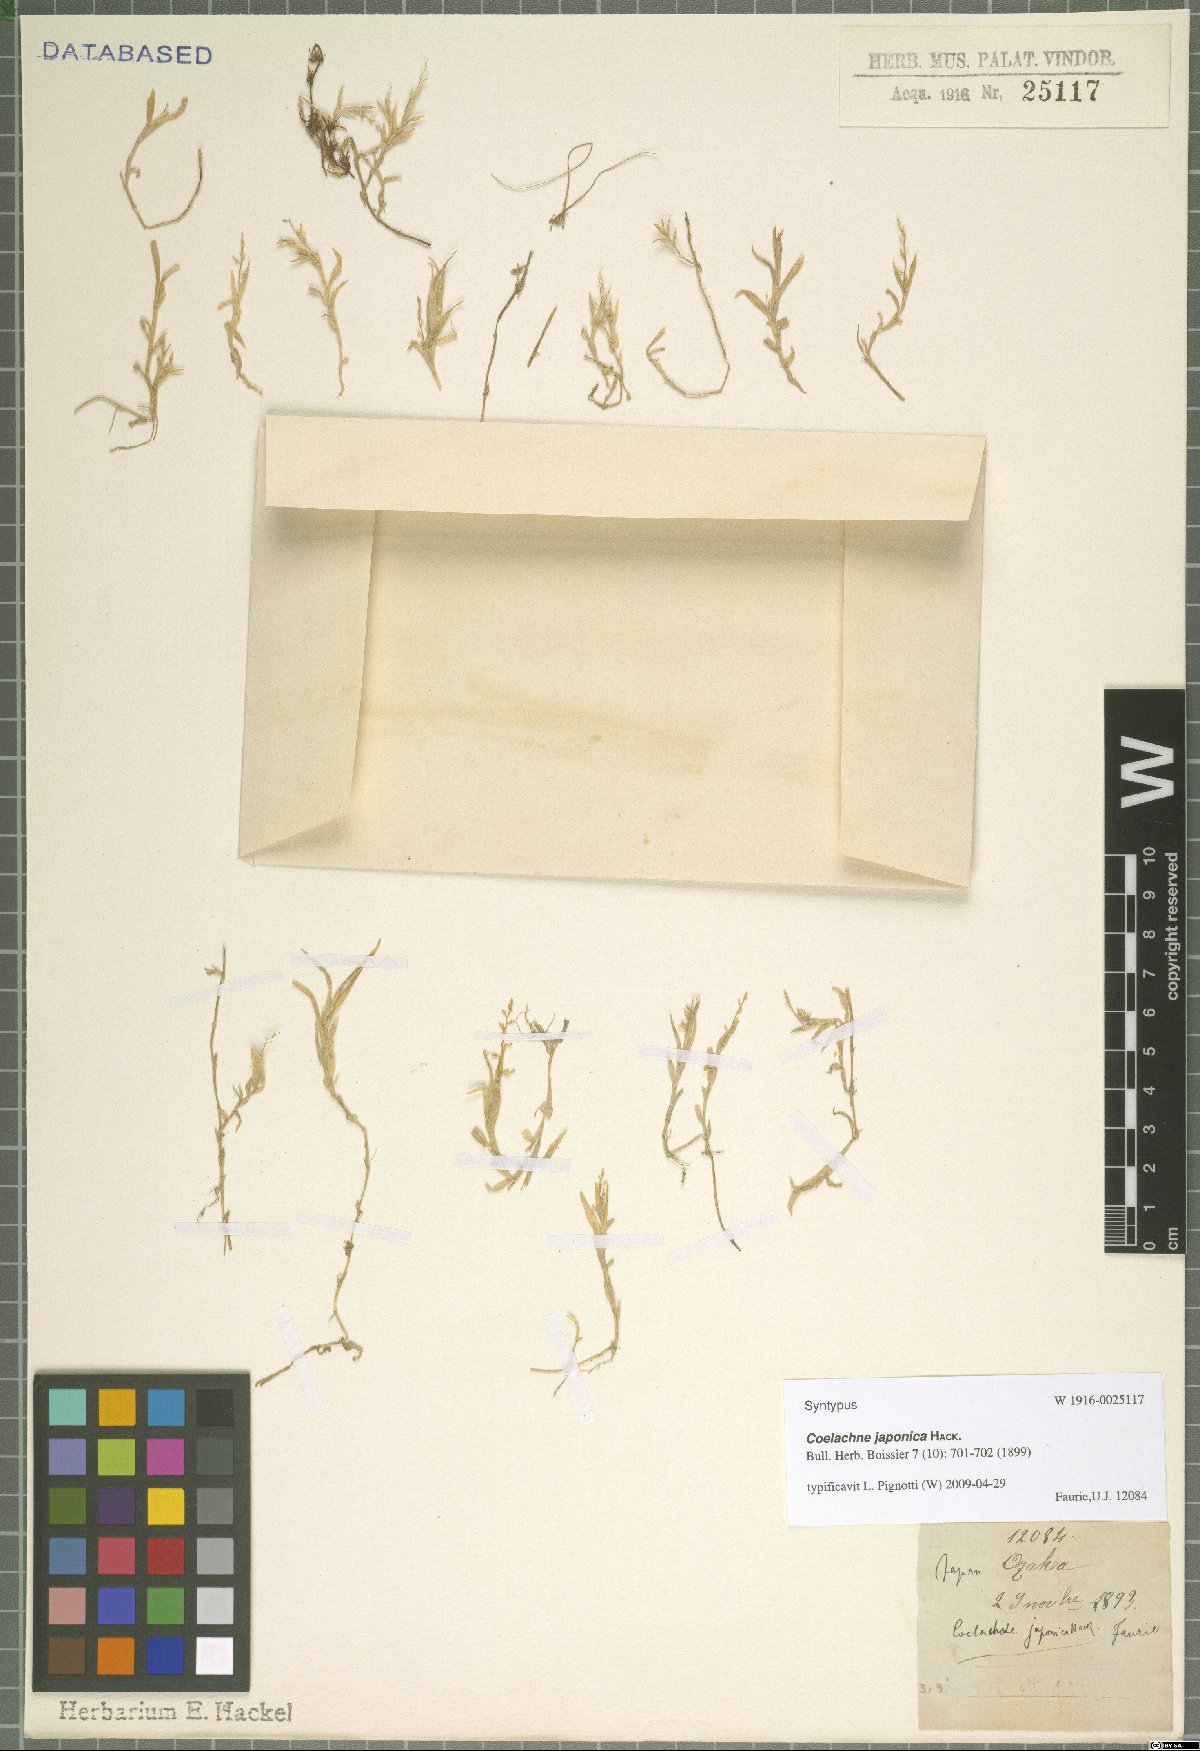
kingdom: Plantae
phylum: Tracheophyta
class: Liliopsida
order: Poales
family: Poaceae
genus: Coelachne
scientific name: Coelachne japonica
